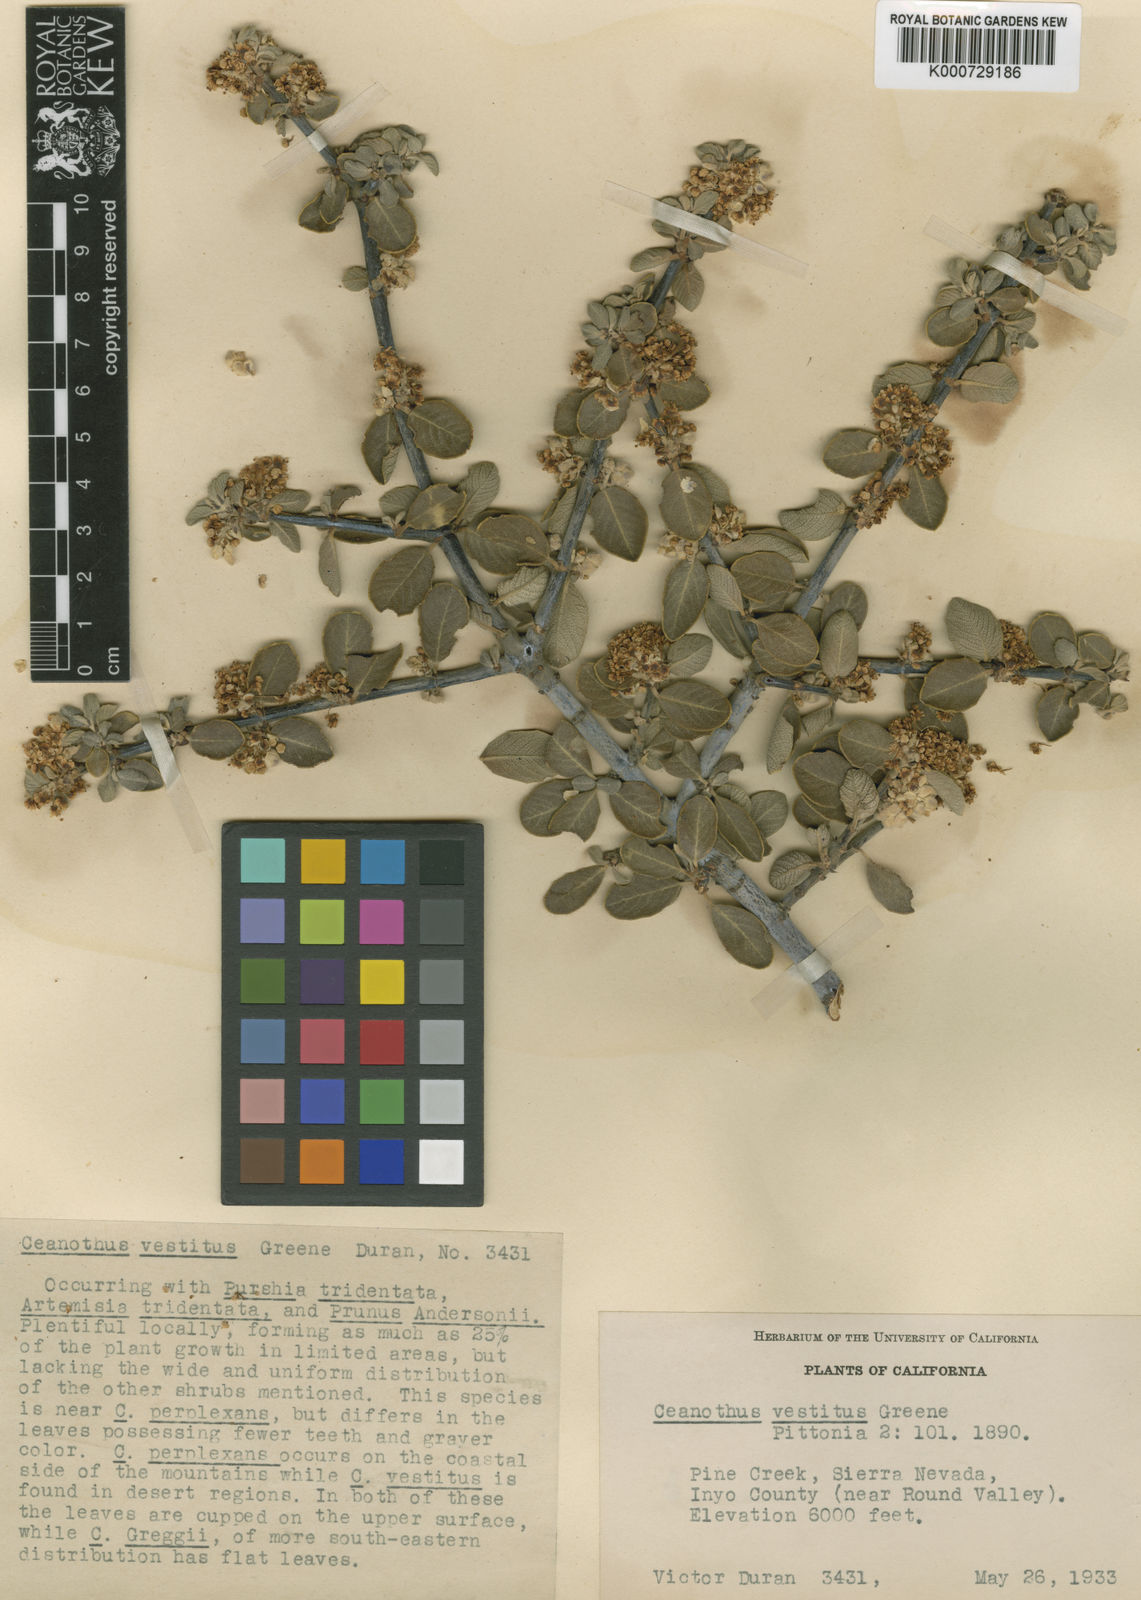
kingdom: Plantae
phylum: Tracheophyta
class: Magnoliopsida
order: Rosales
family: Rhamnaceae
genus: Ceanothus
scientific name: Ceanothus pauciflorus
